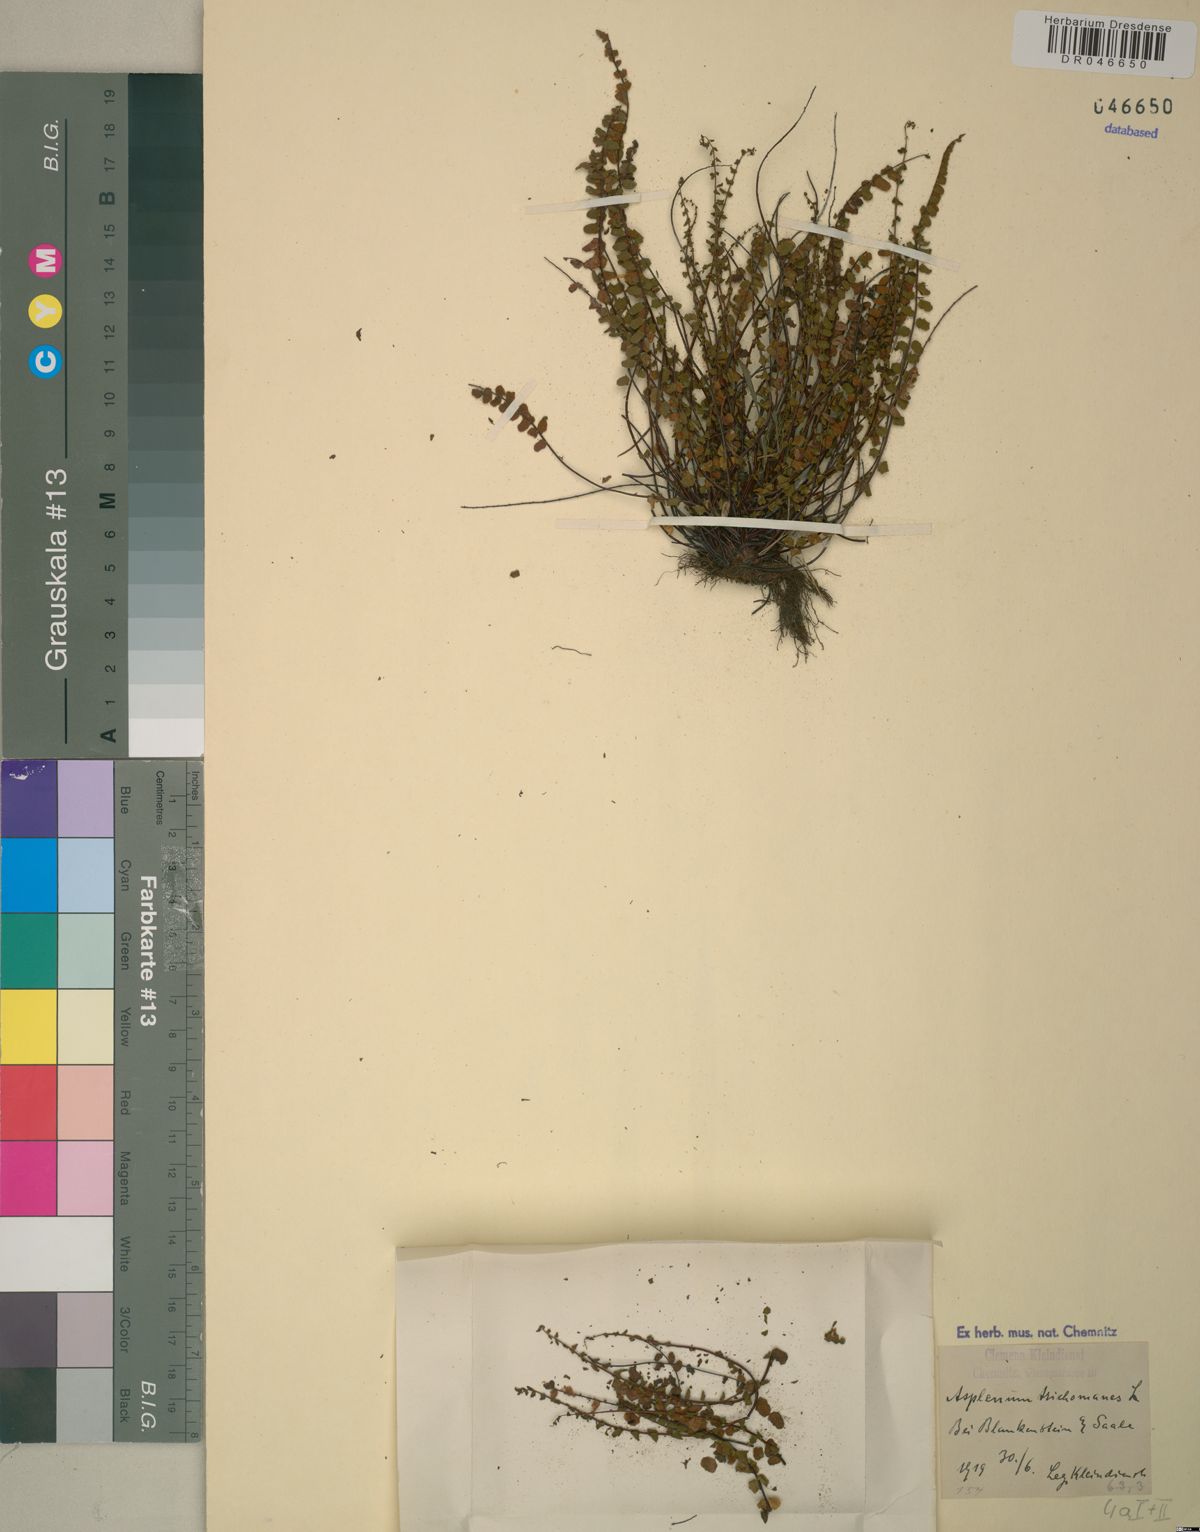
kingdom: Plantae
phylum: Tracheophyta
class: Polypodiopsida
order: Polypodiales
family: Aspleniaceae
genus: Asplenium
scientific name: Asplenium trichomanes
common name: Maidenhair spleenwort
